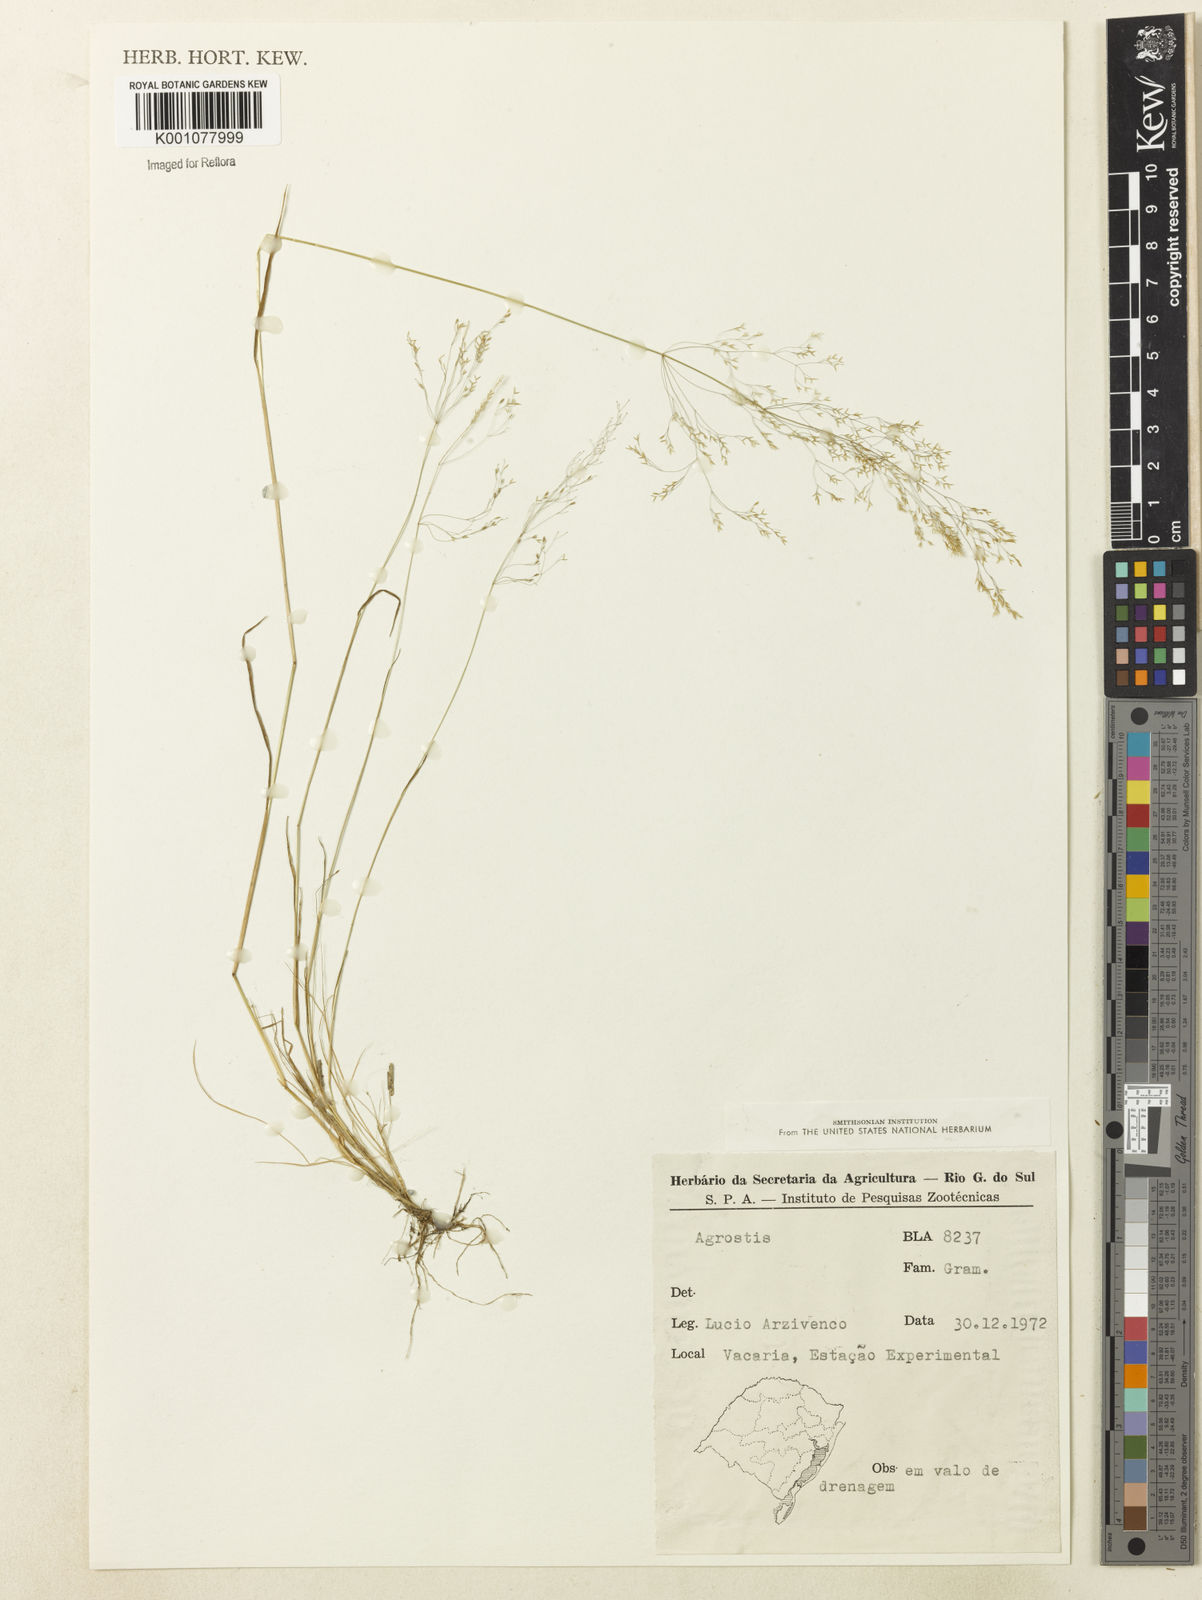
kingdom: Plantae
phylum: Tracheophyta
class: Liliopsida
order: Poales
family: Poaceae
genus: Agrostis
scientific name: Agrostis
